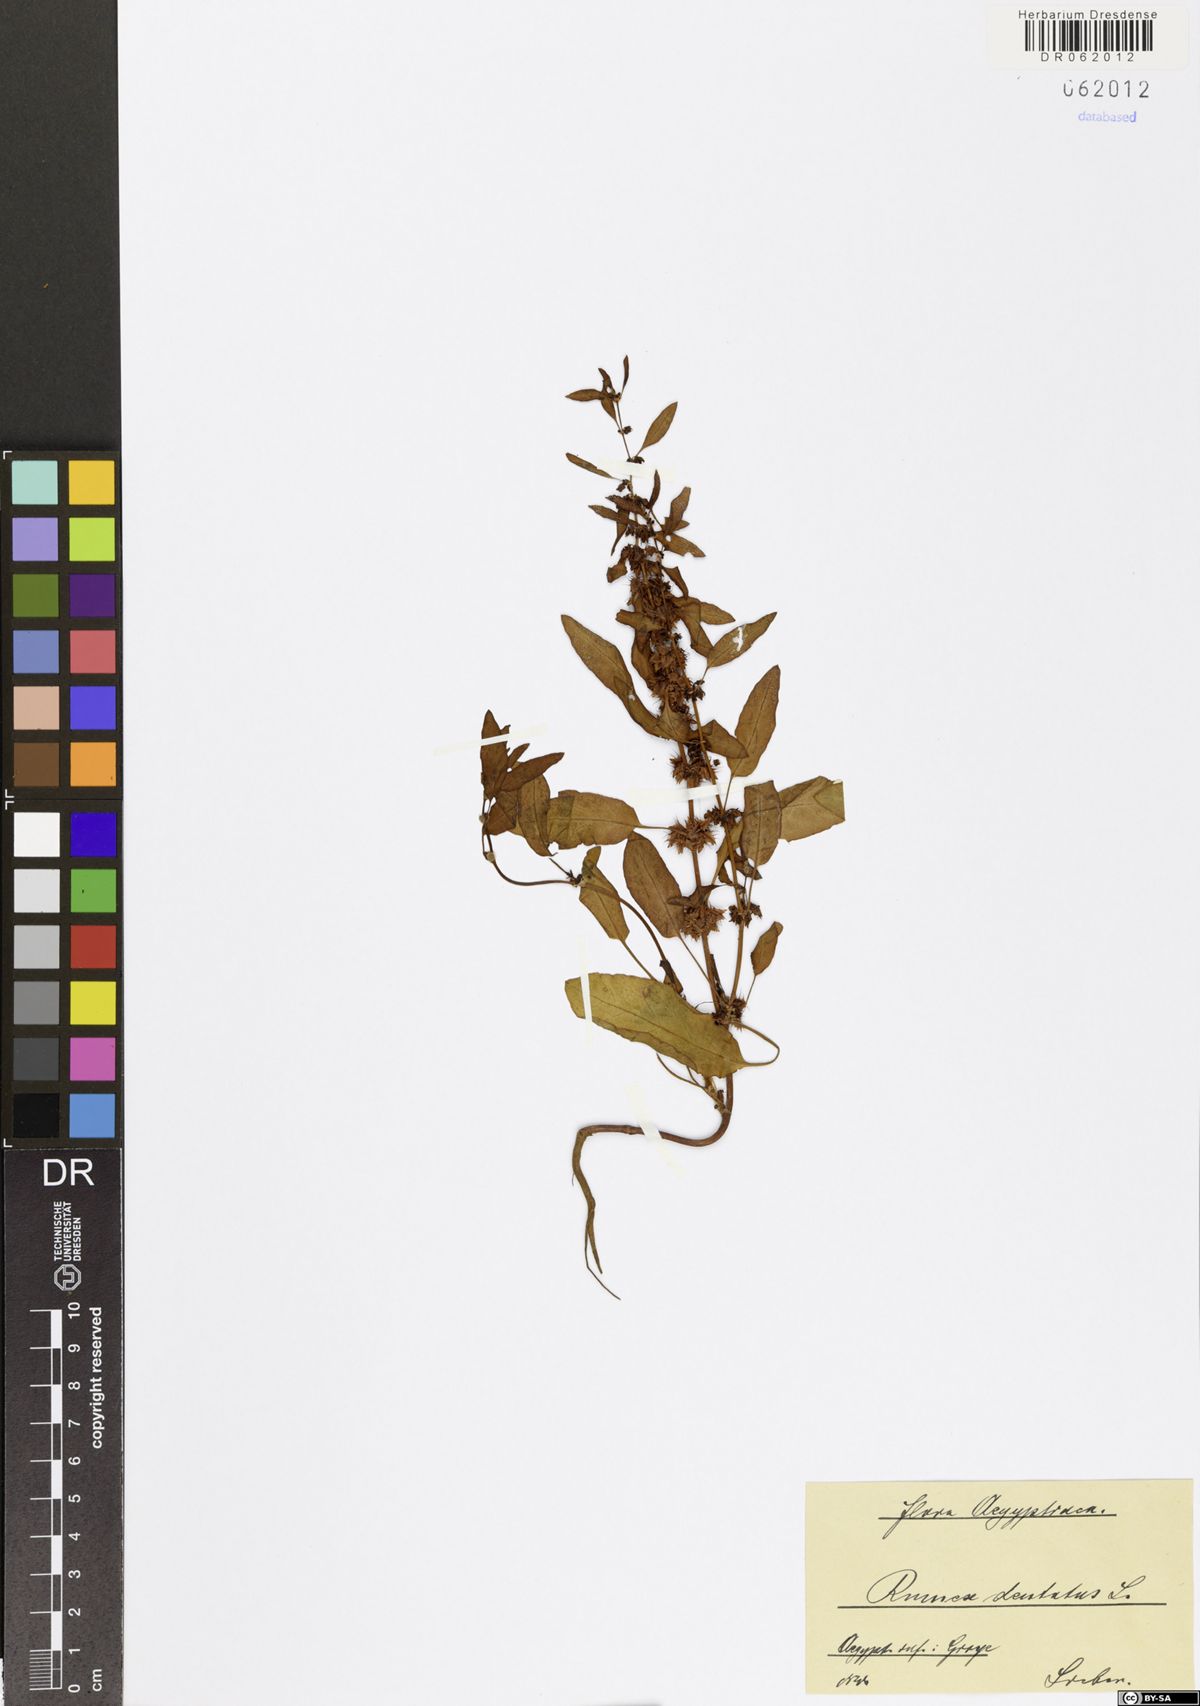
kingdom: Plantae
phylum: Tracheophyta
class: Magnoliopsida
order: Caryophyllales
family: Polygonaceae
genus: Rumex
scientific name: Rumex dentatus
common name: Toothed dock
